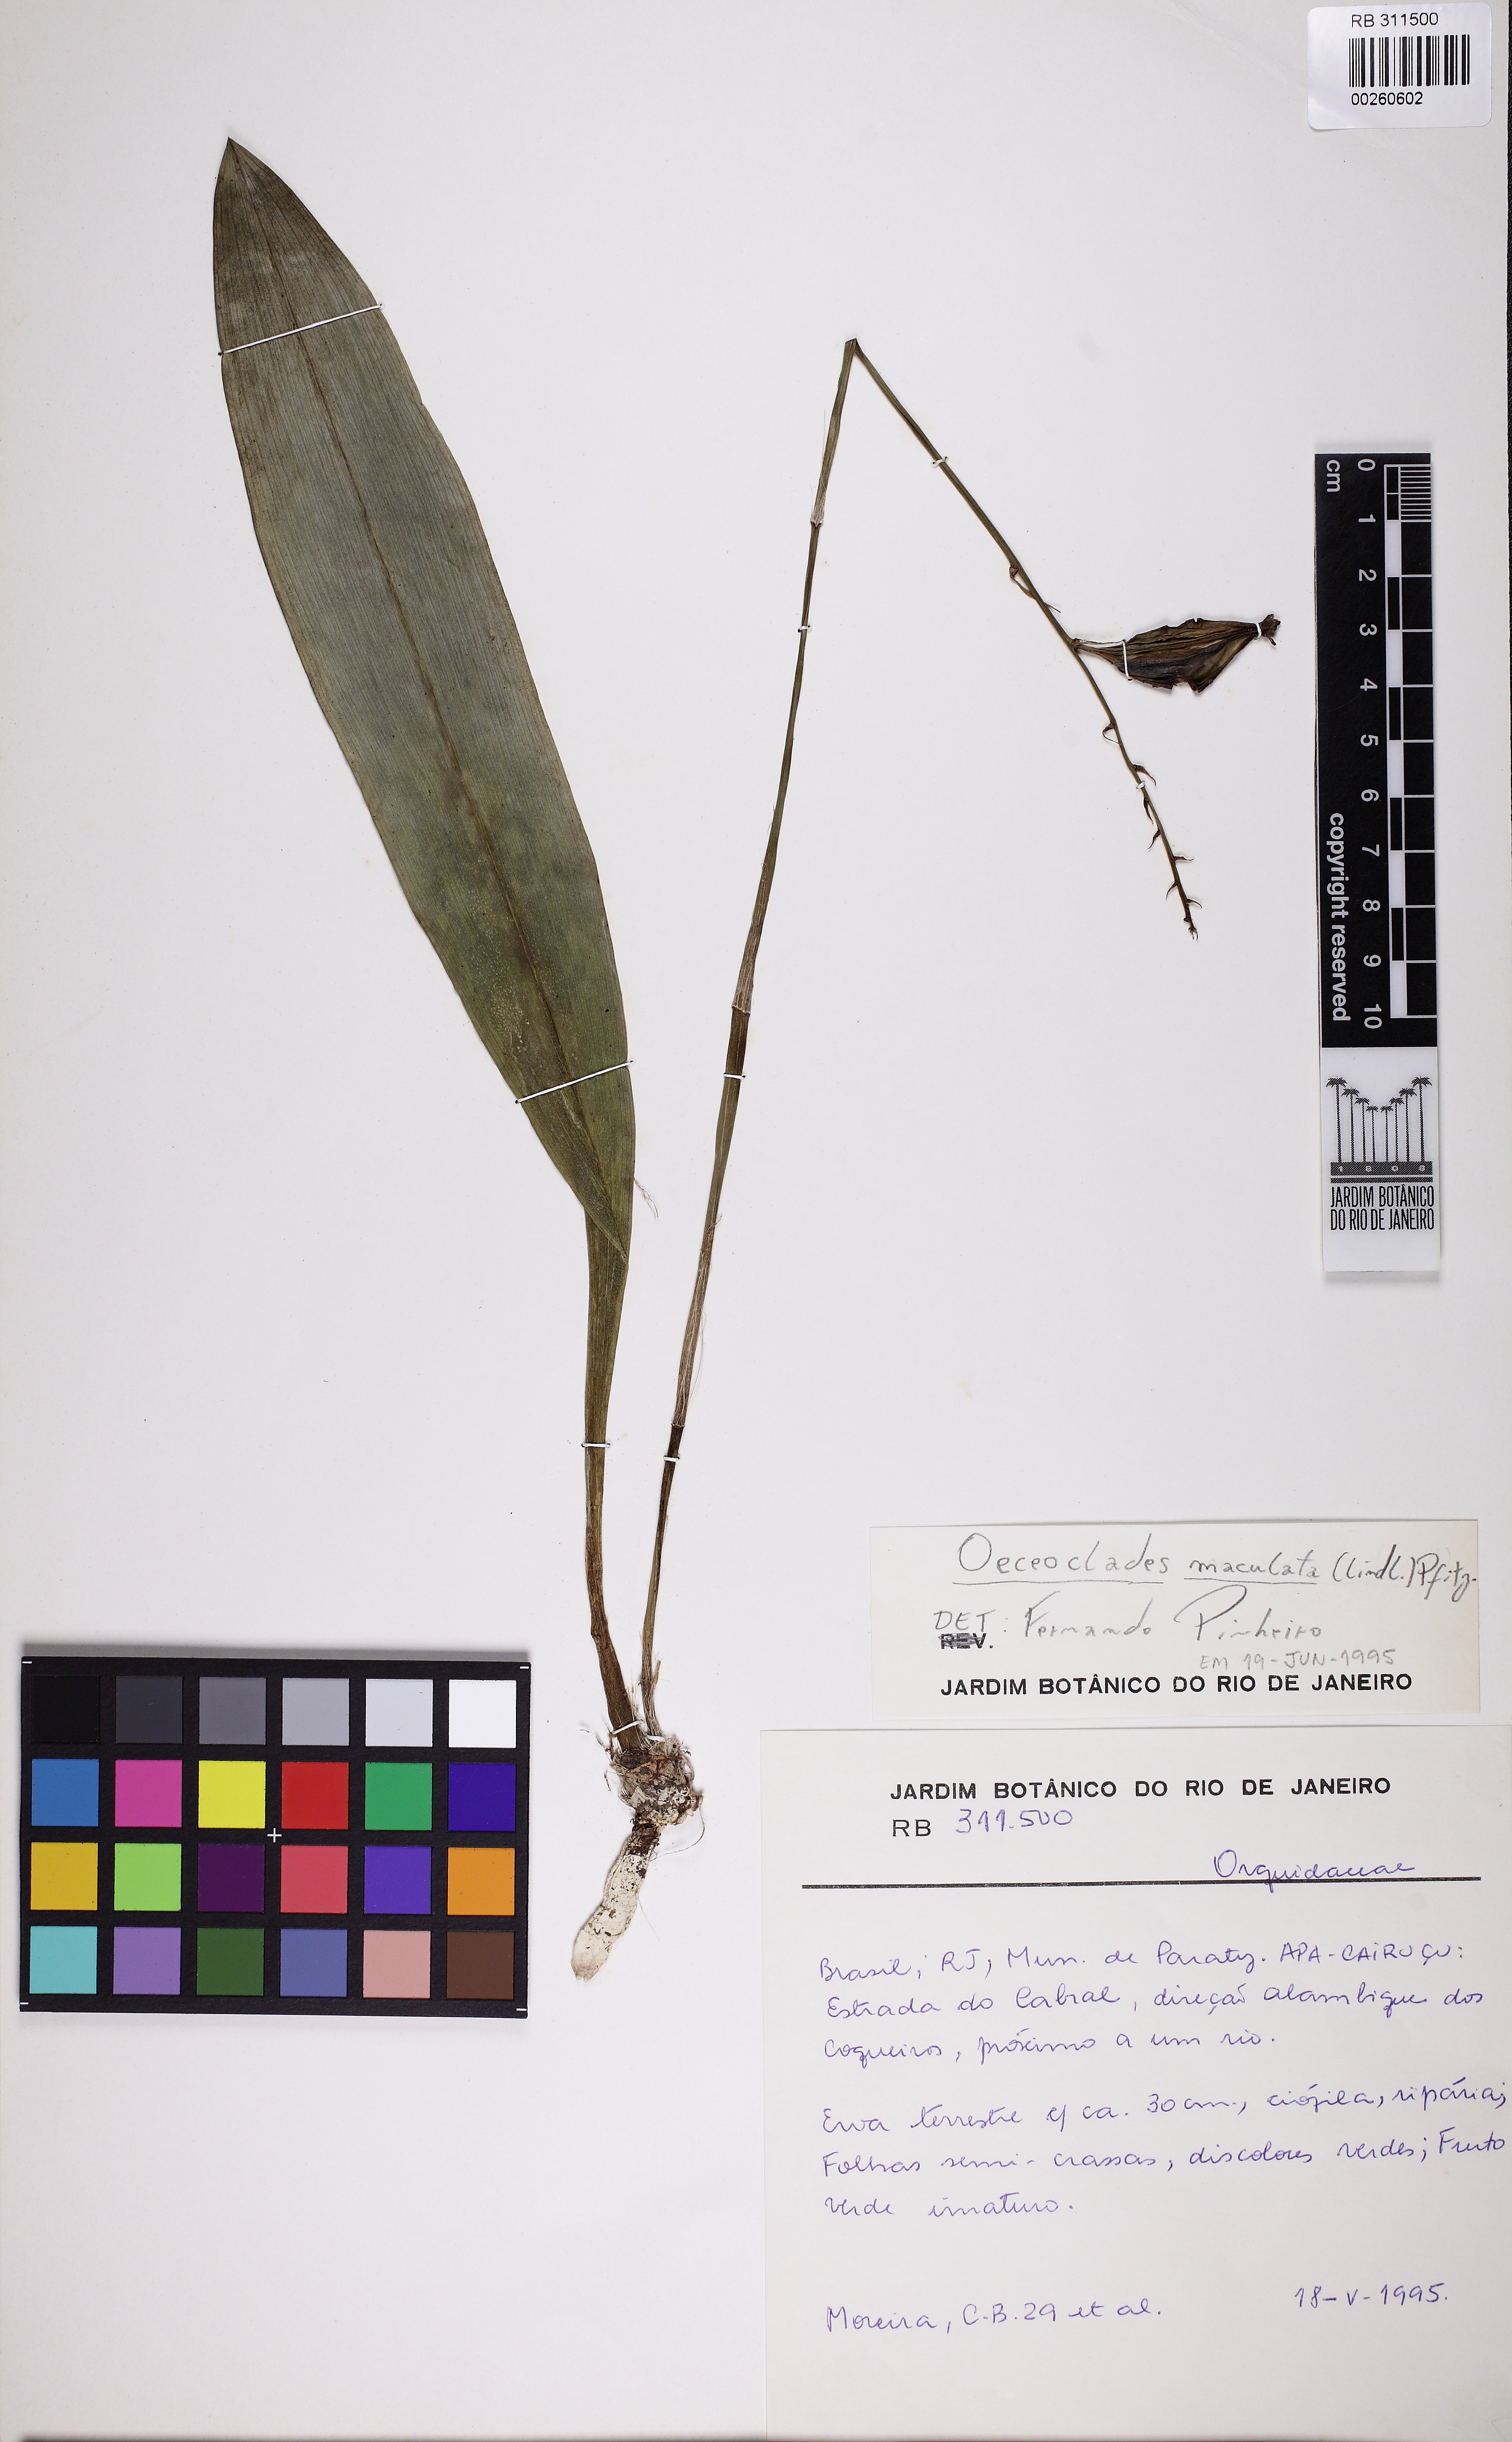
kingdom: Plantae
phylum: Tracheophyta
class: Liliopsida
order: Asparagales
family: Orchidaceae
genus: Eulophia
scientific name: Eulophia maculata
